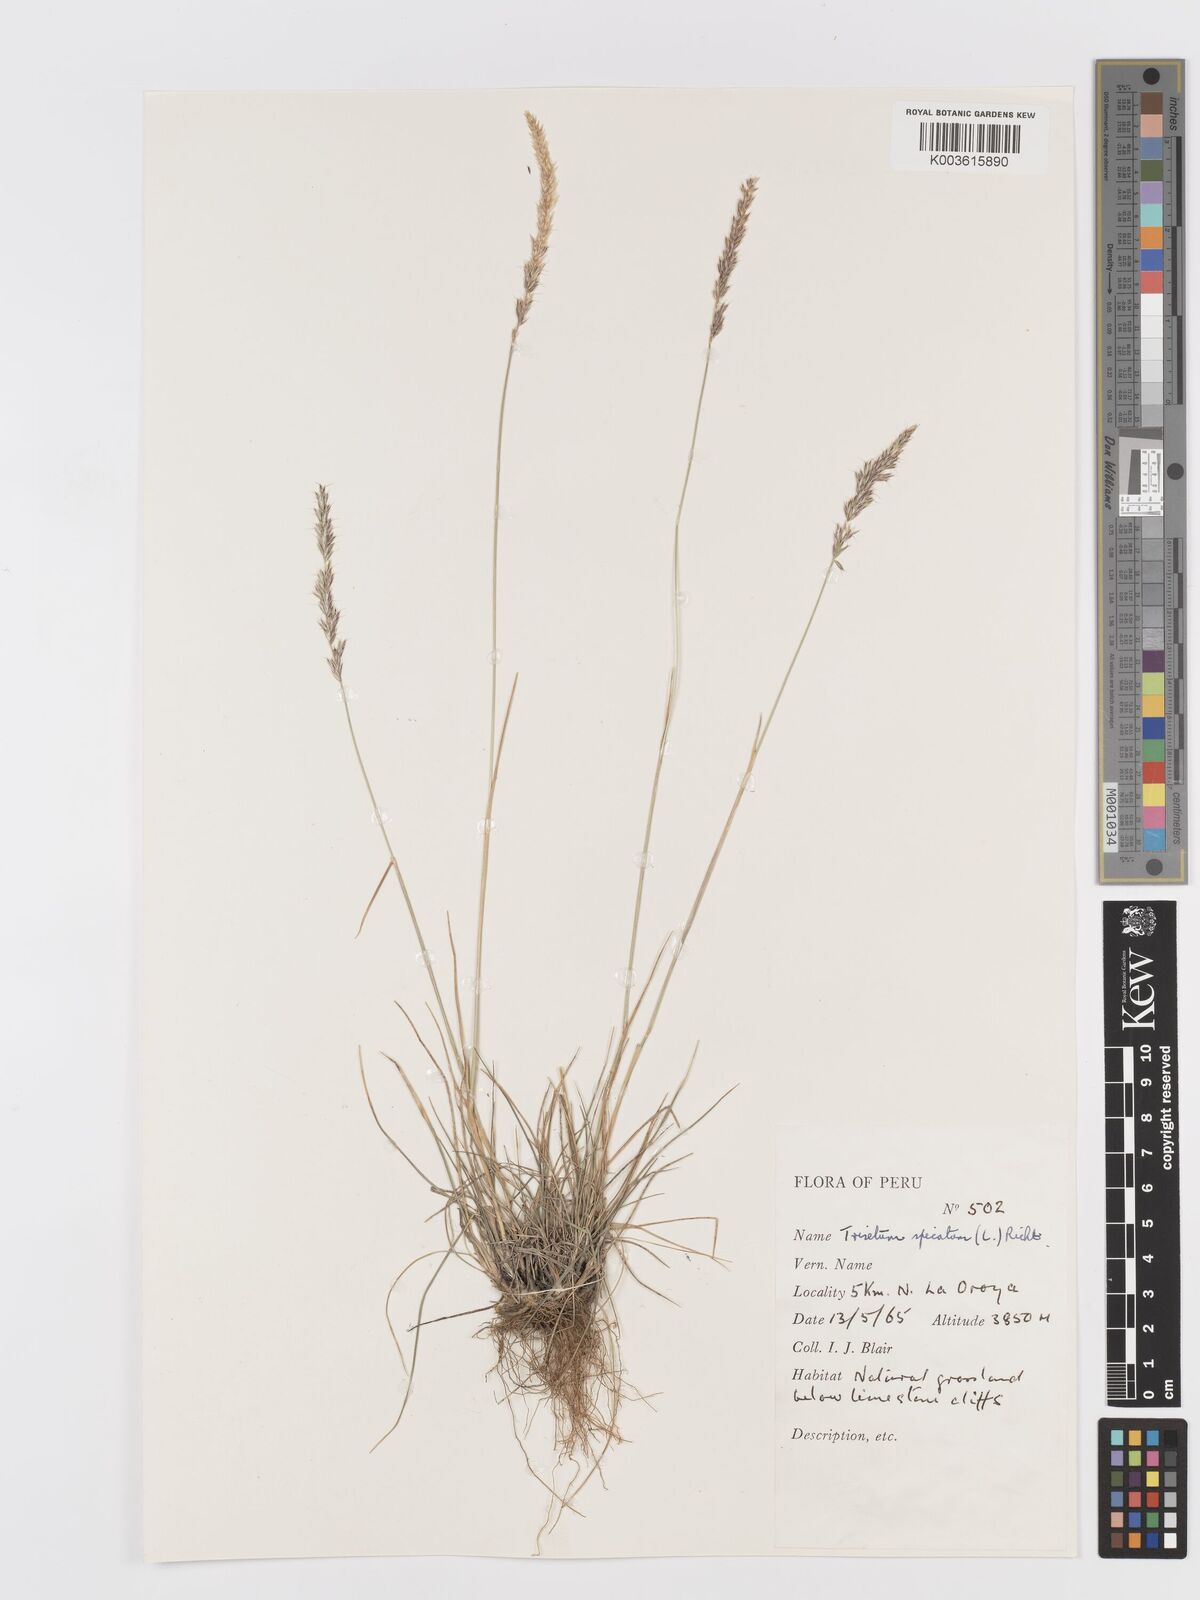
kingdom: Plantae
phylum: Tracheophyta
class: Liliopsida
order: Poales
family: Poaceae
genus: Koeleria
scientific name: Koeleria spicata
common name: Mountain trisetum
